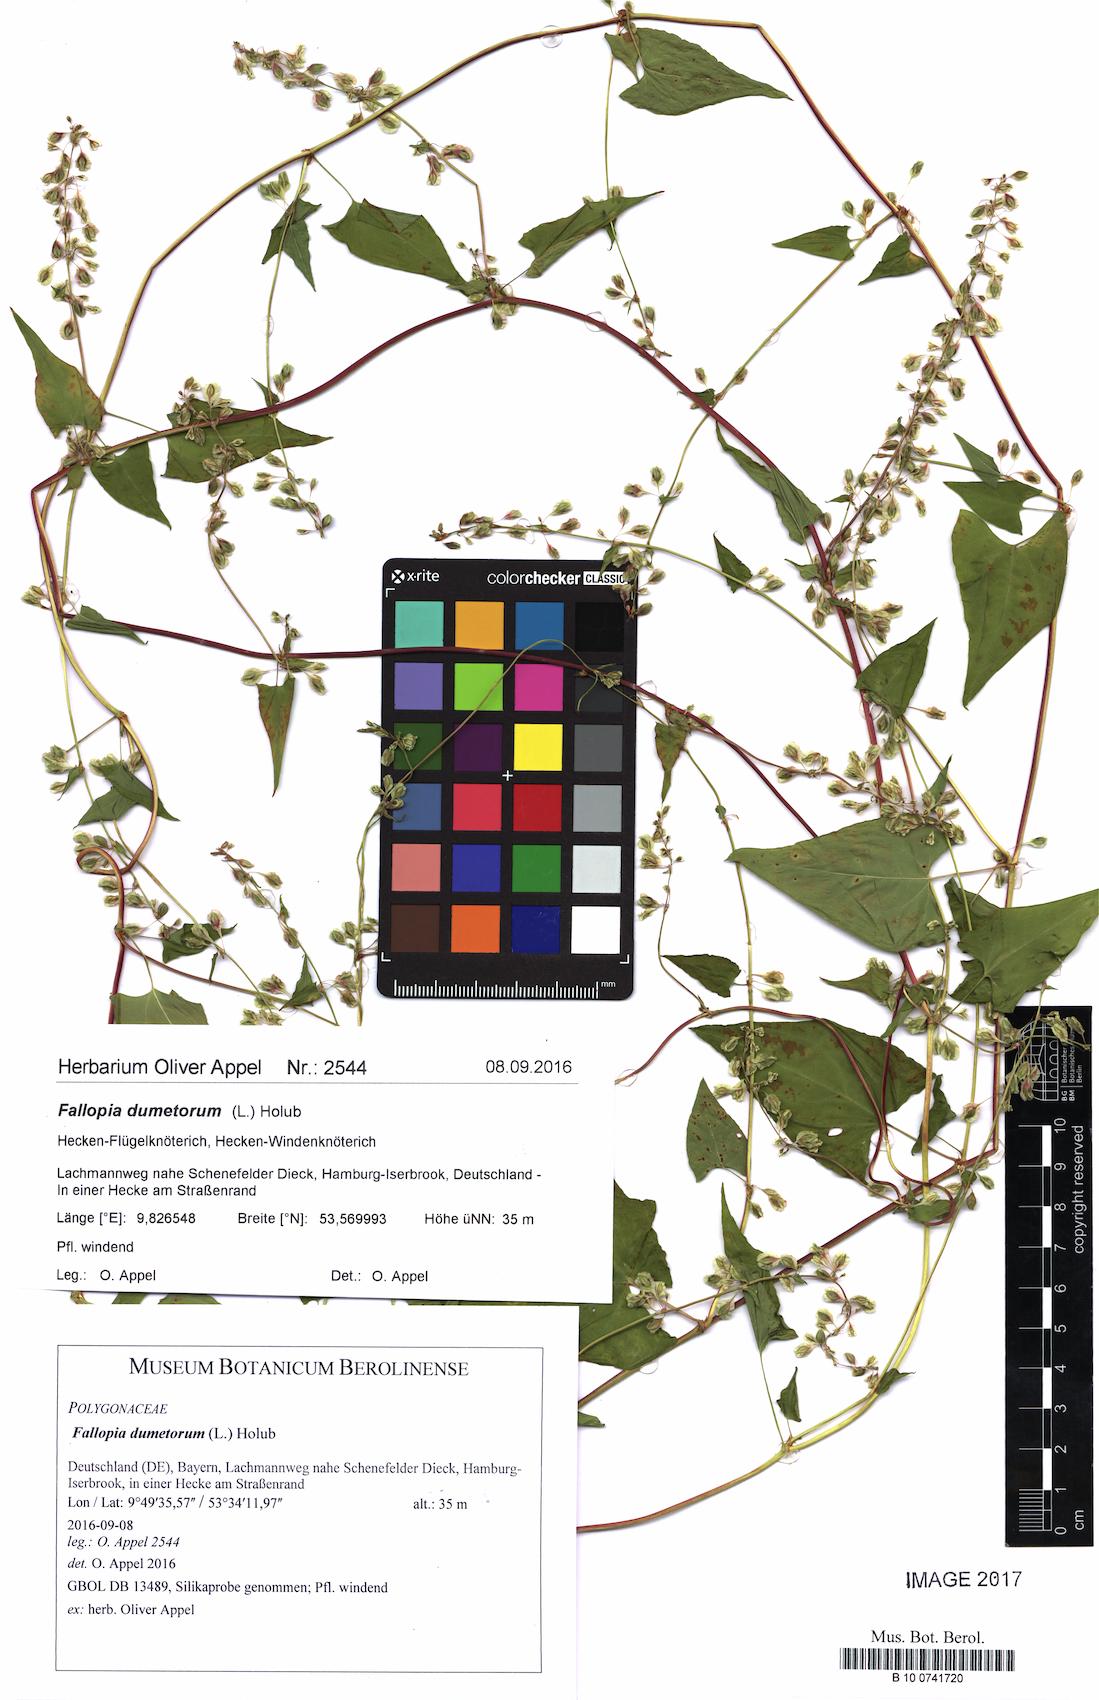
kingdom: Plantae
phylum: Tracheophyta
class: Magnoliopsida
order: Caryophyllales
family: Polygonaceae
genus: Fallopia
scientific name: Fallopia dumetorum
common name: Copse-bindweed
